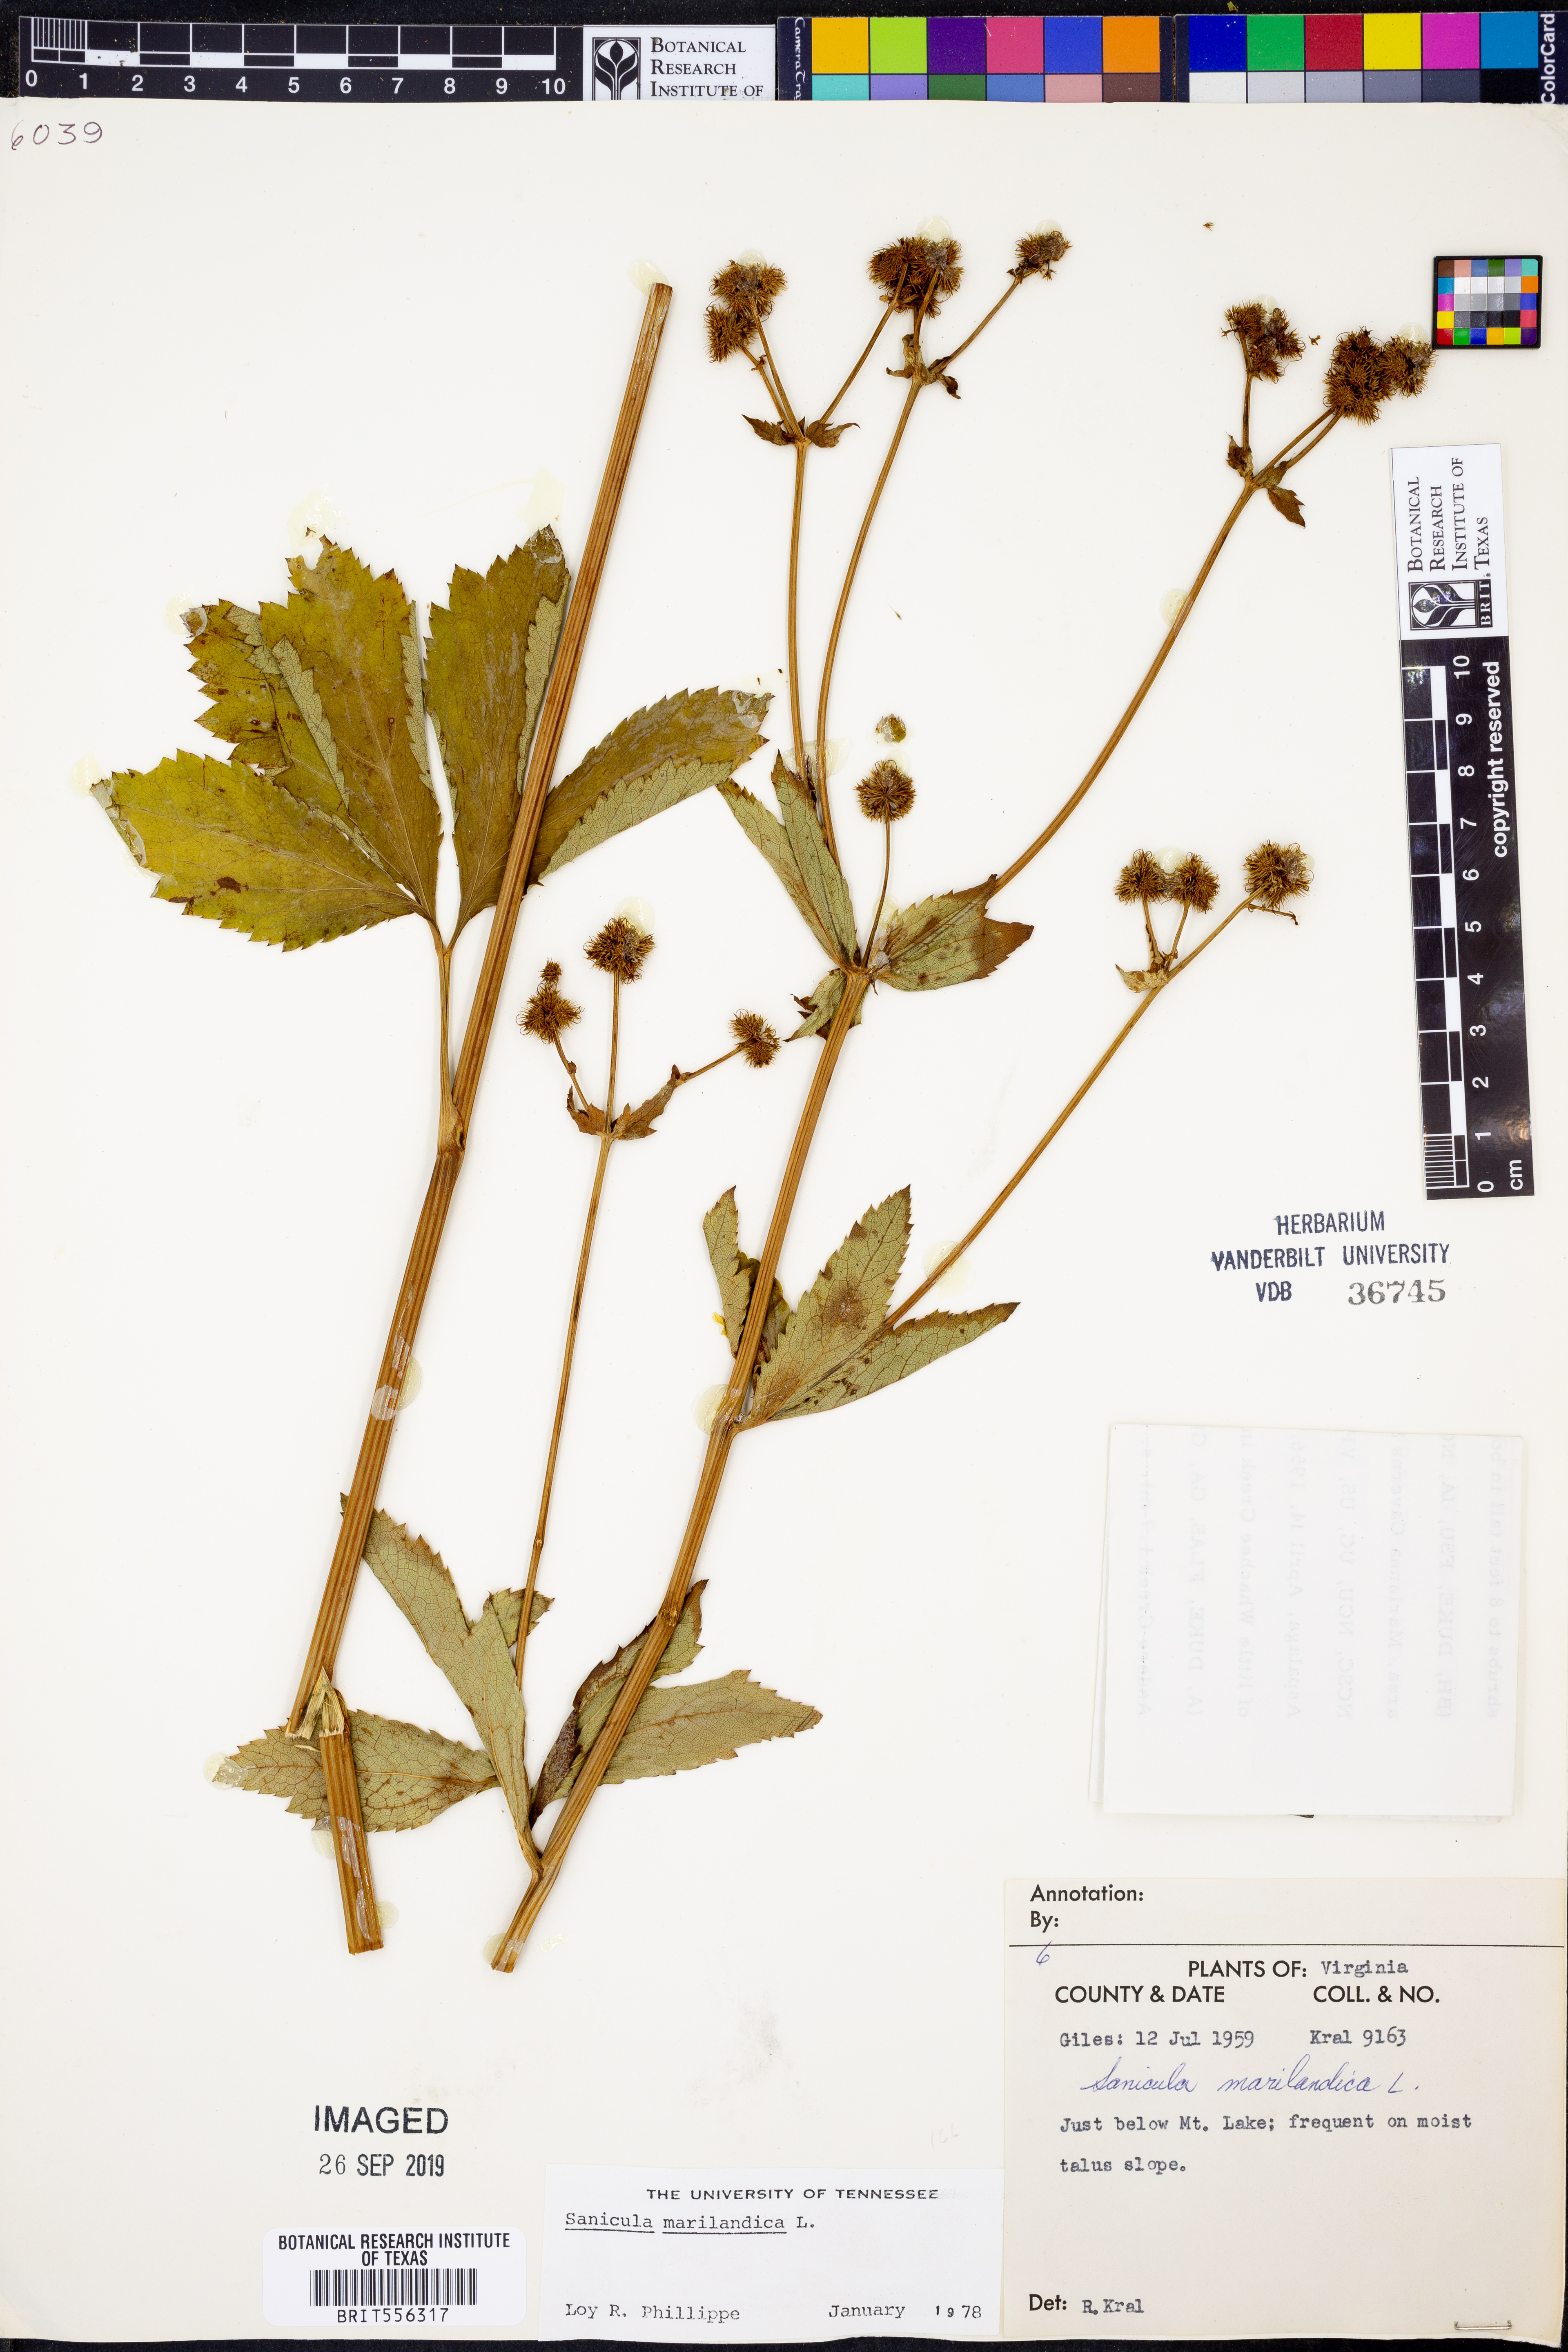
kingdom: Plantae
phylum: Tracheophyta
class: Magnoliopsida
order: Apiales
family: Apiaceae
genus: Sanicula
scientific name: Sanicula marilandica
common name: Black snakeroot
